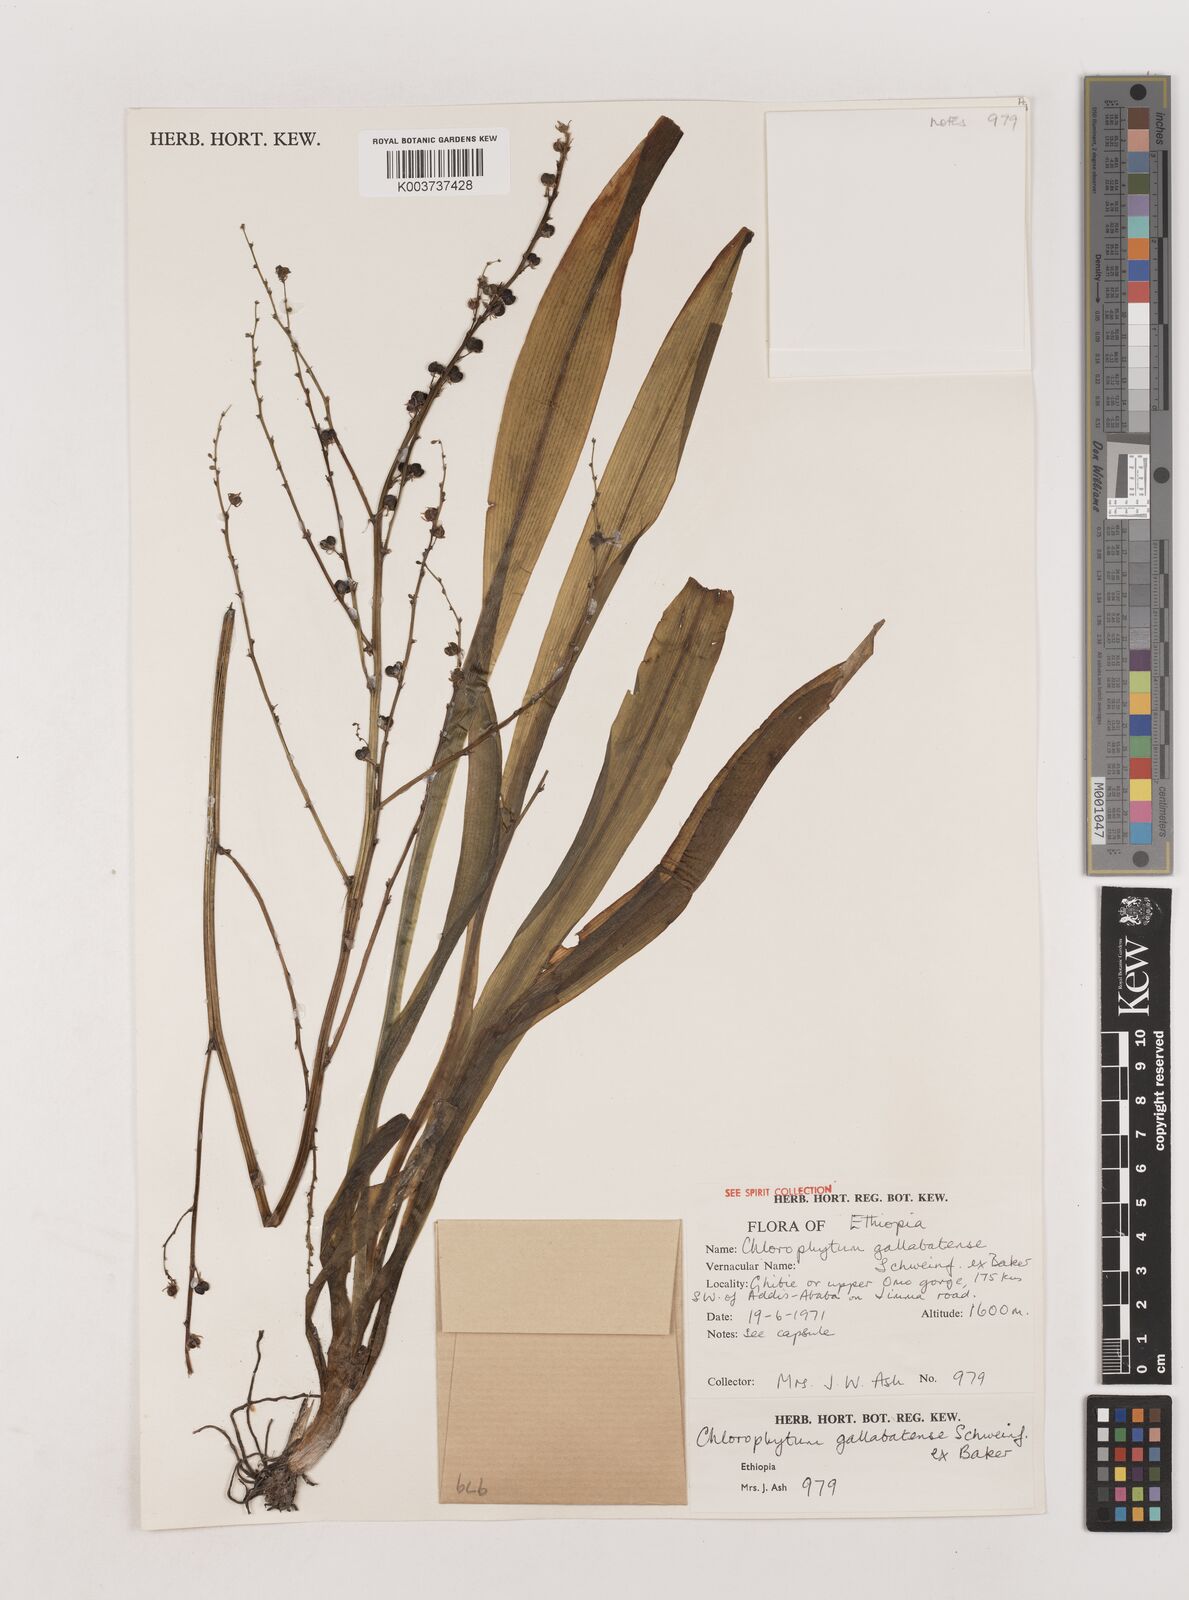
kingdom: Plantae
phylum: Tracheophyta
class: Liliopsida
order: Asparagales
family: Asparagaceae
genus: Chlorophytum
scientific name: Chlorophytum gallabatense
